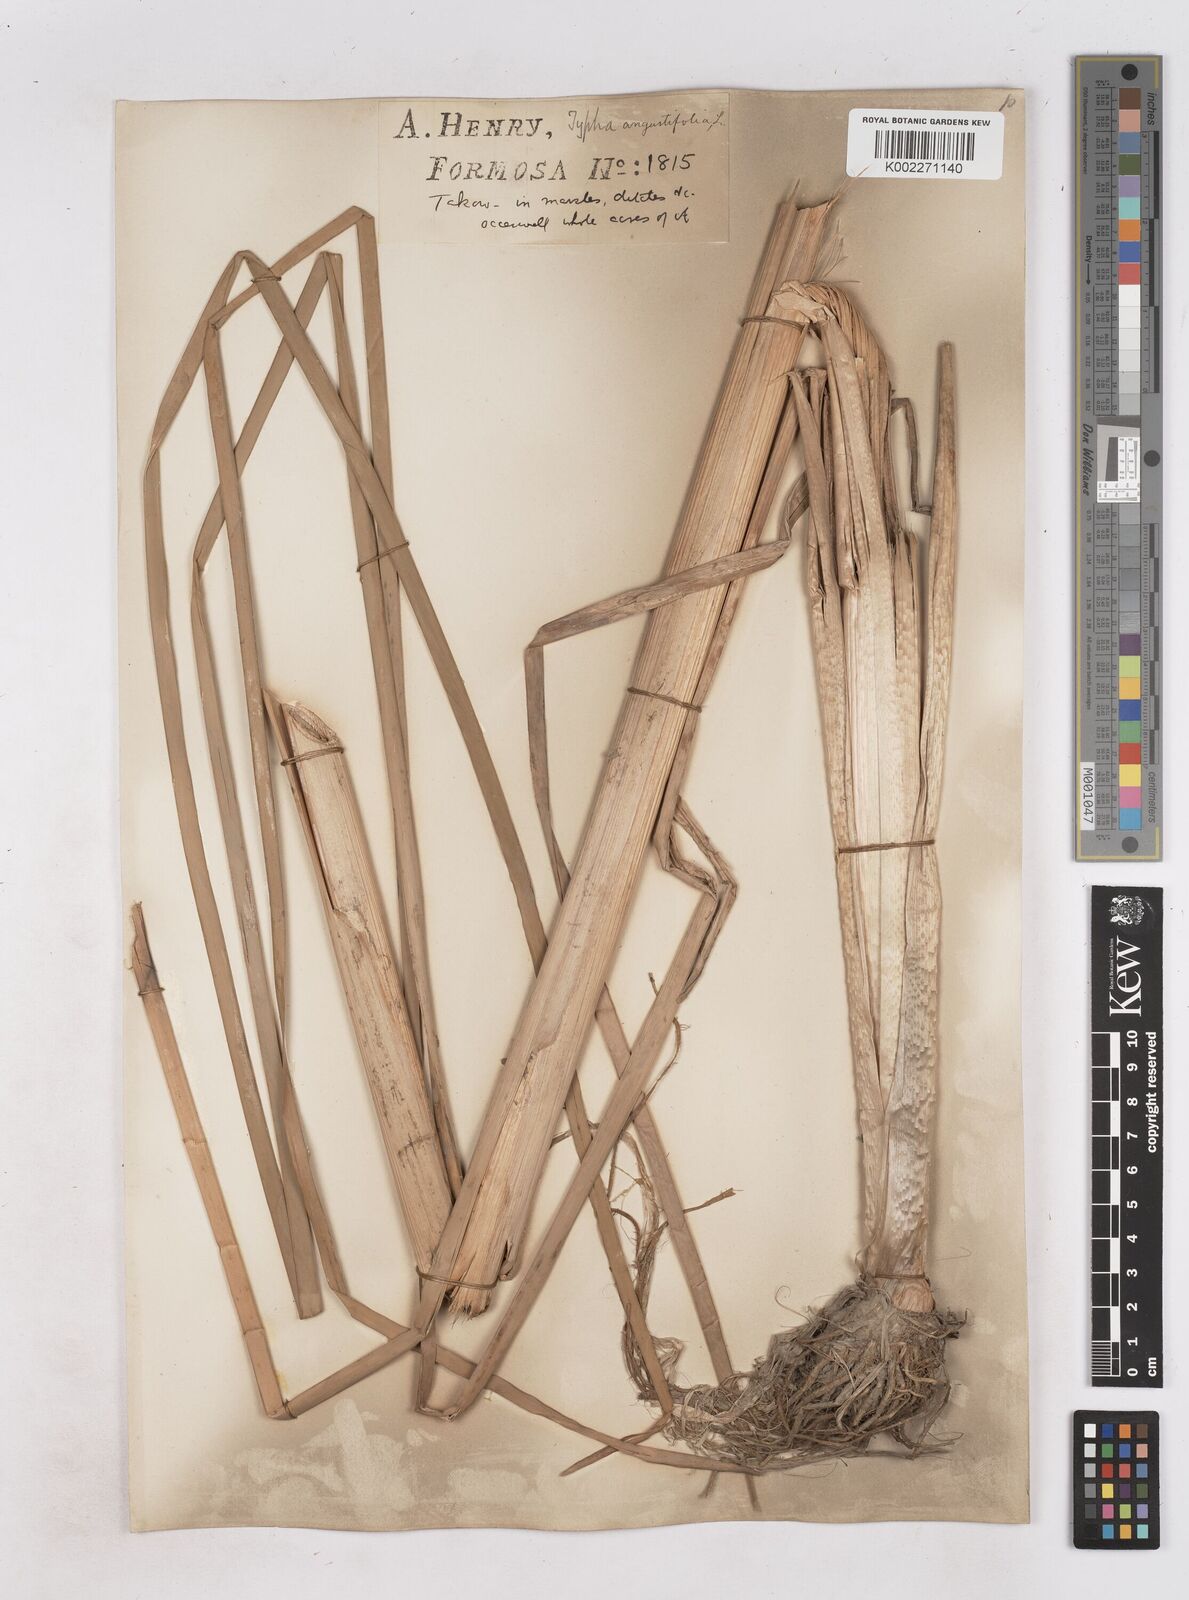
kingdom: Plantae
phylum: Tracheophyta
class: Liliopsida
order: Poales
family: Typhaceae
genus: Typha
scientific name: Typha angustifolia
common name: Lesser bulrush
